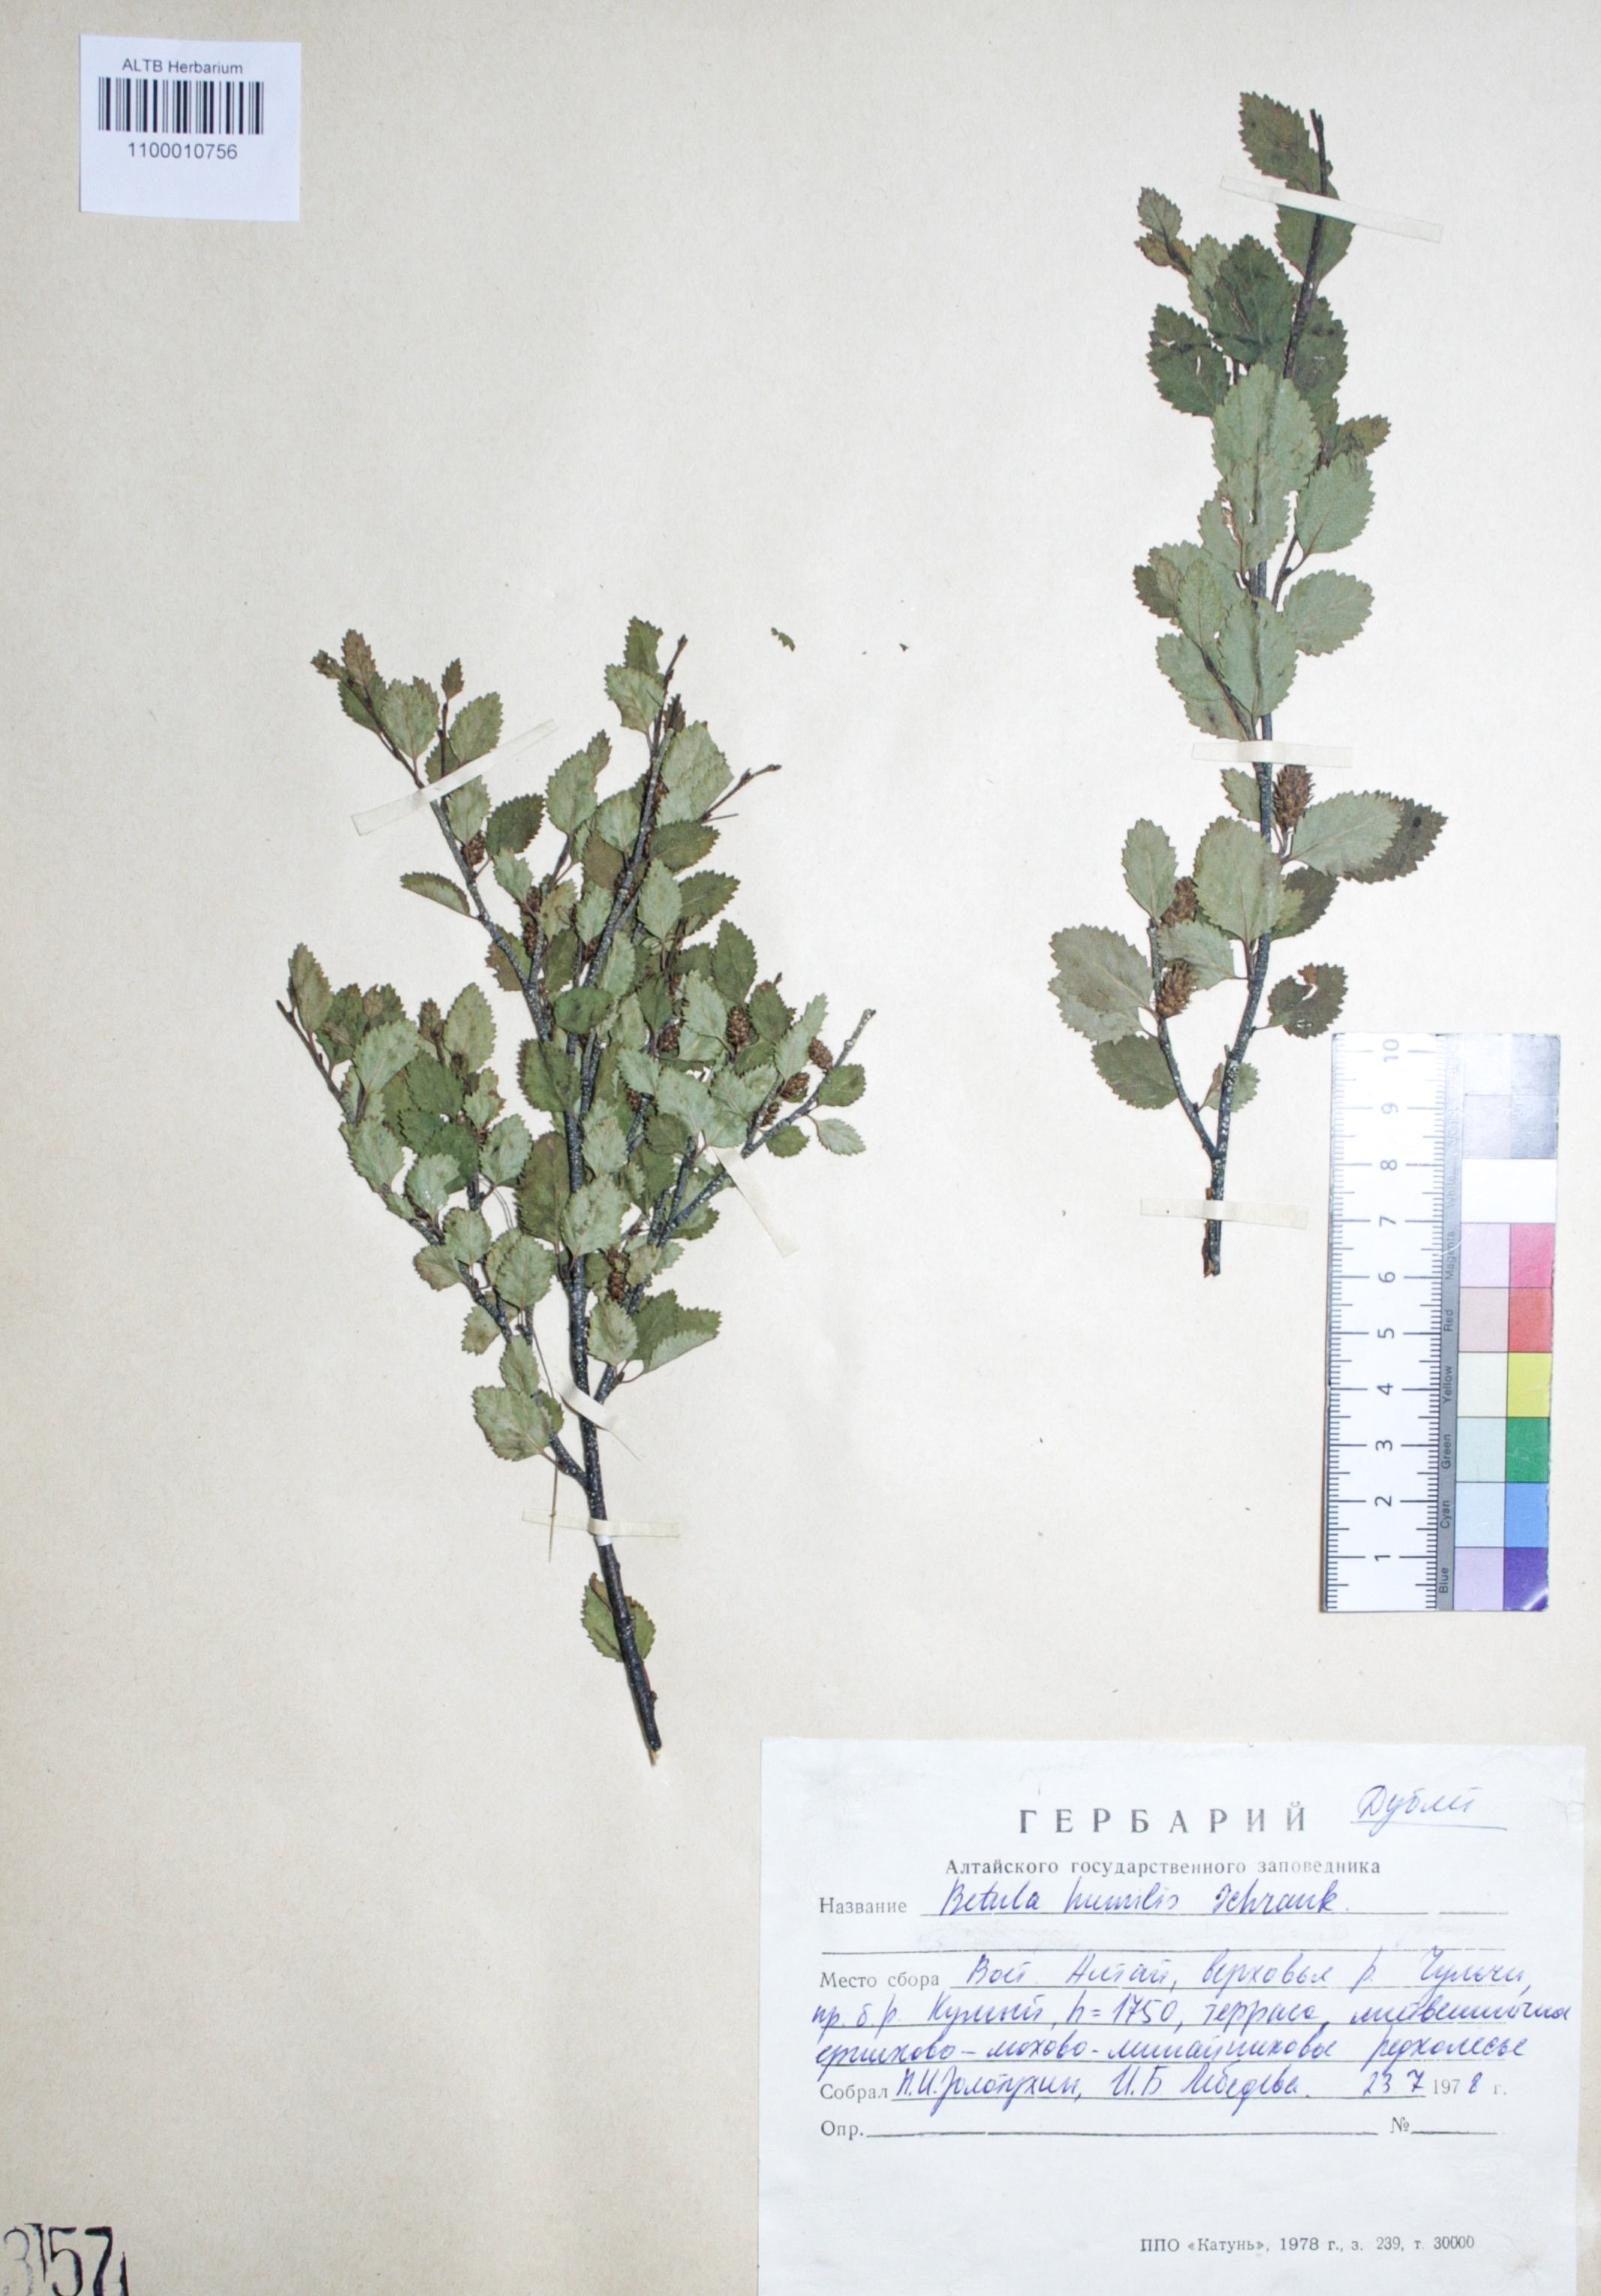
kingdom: Plantae
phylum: Tracheophyta
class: Magnoliopsida
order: Fagales
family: Betulaceae
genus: Betula
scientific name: Betula humilis
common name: Shrubby birch
